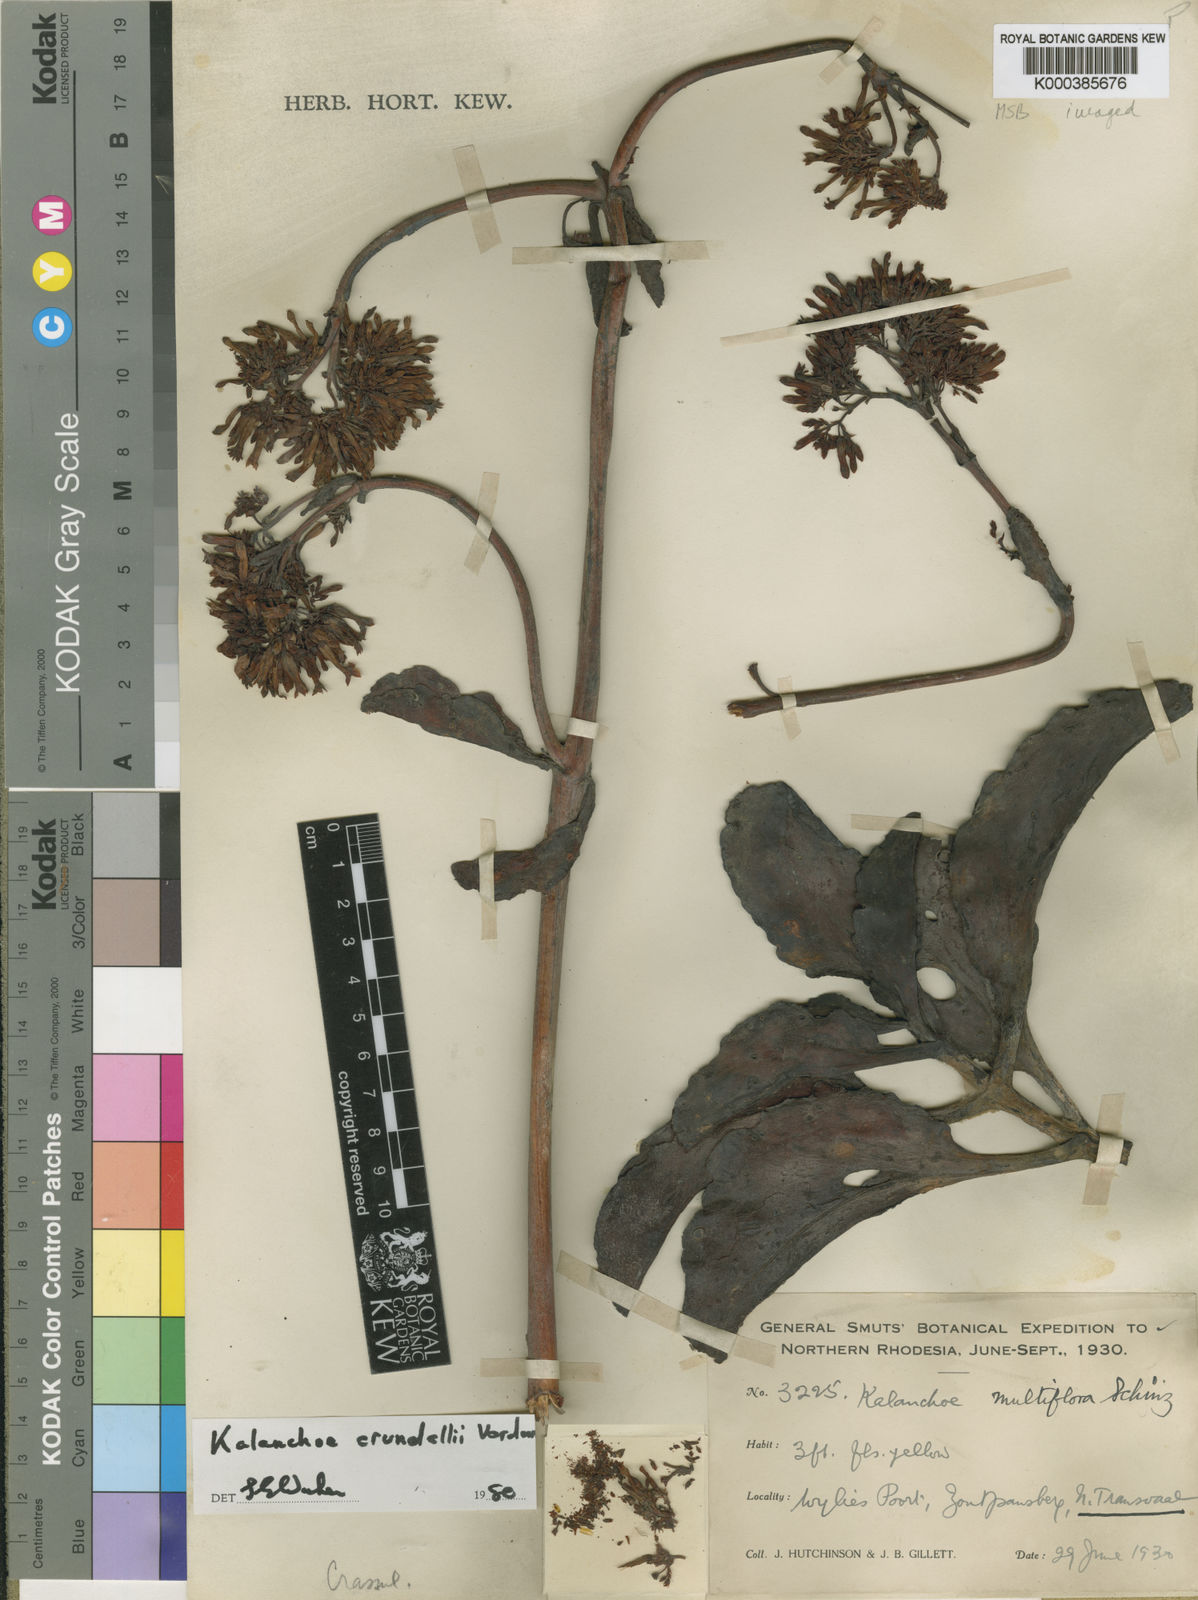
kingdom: Plantae
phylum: Tracheophyta
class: Magnoliopsida
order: Saxifragales
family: Crassulaceae
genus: Kalanchoe
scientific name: Kalanchoe crundallii
